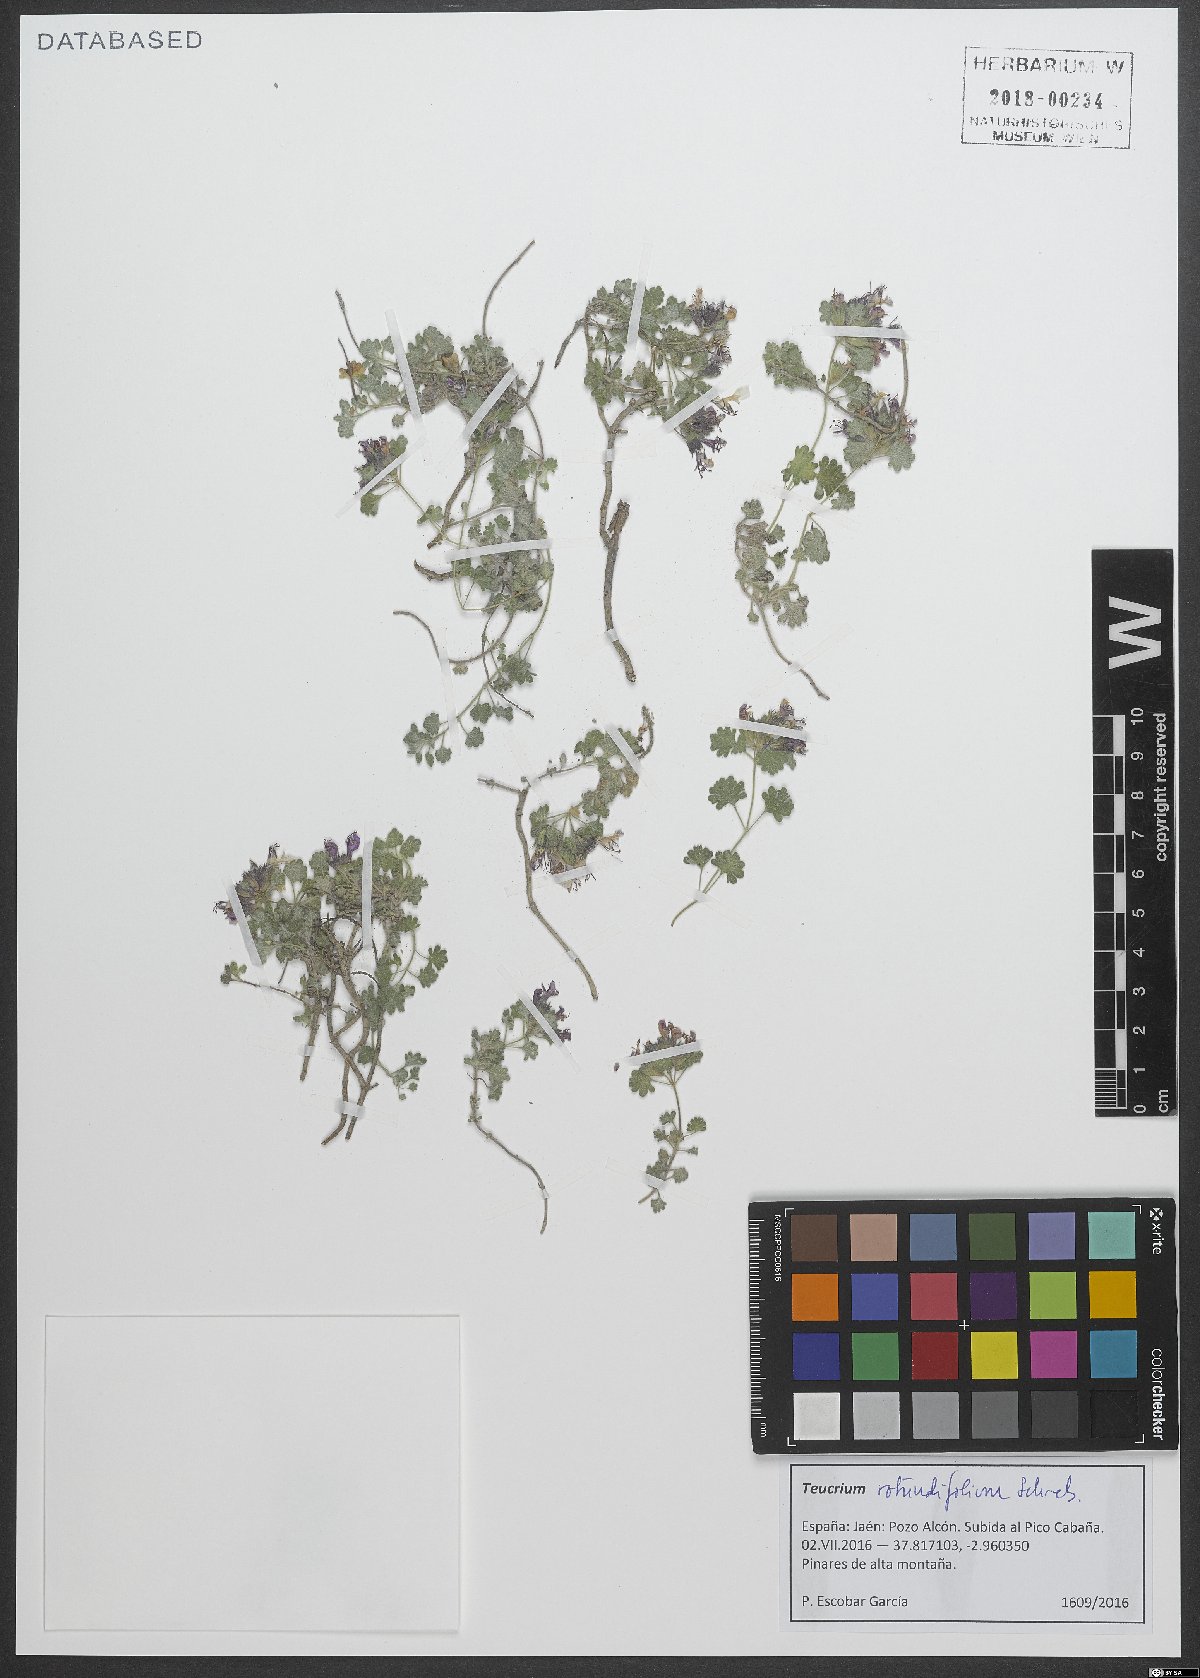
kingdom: Plantae
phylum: Tracheophyta
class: Magnoliopsida
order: Lamiales
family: Lamiaceae
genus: Teucrium
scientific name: Teucrium rotundifolium
